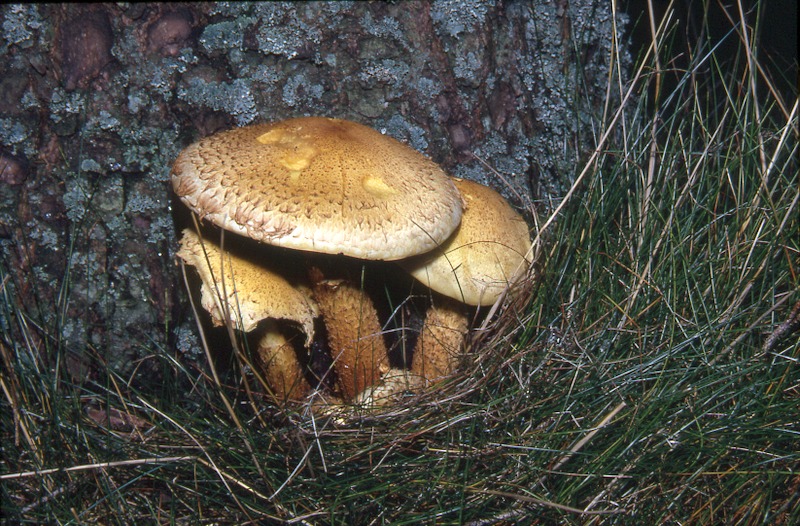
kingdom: Plantae
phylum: Tracheophyta
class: Pinopsida
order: Pinales
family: Pinaceae
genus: Picea
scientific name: Picea abies
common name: Norway spruce
